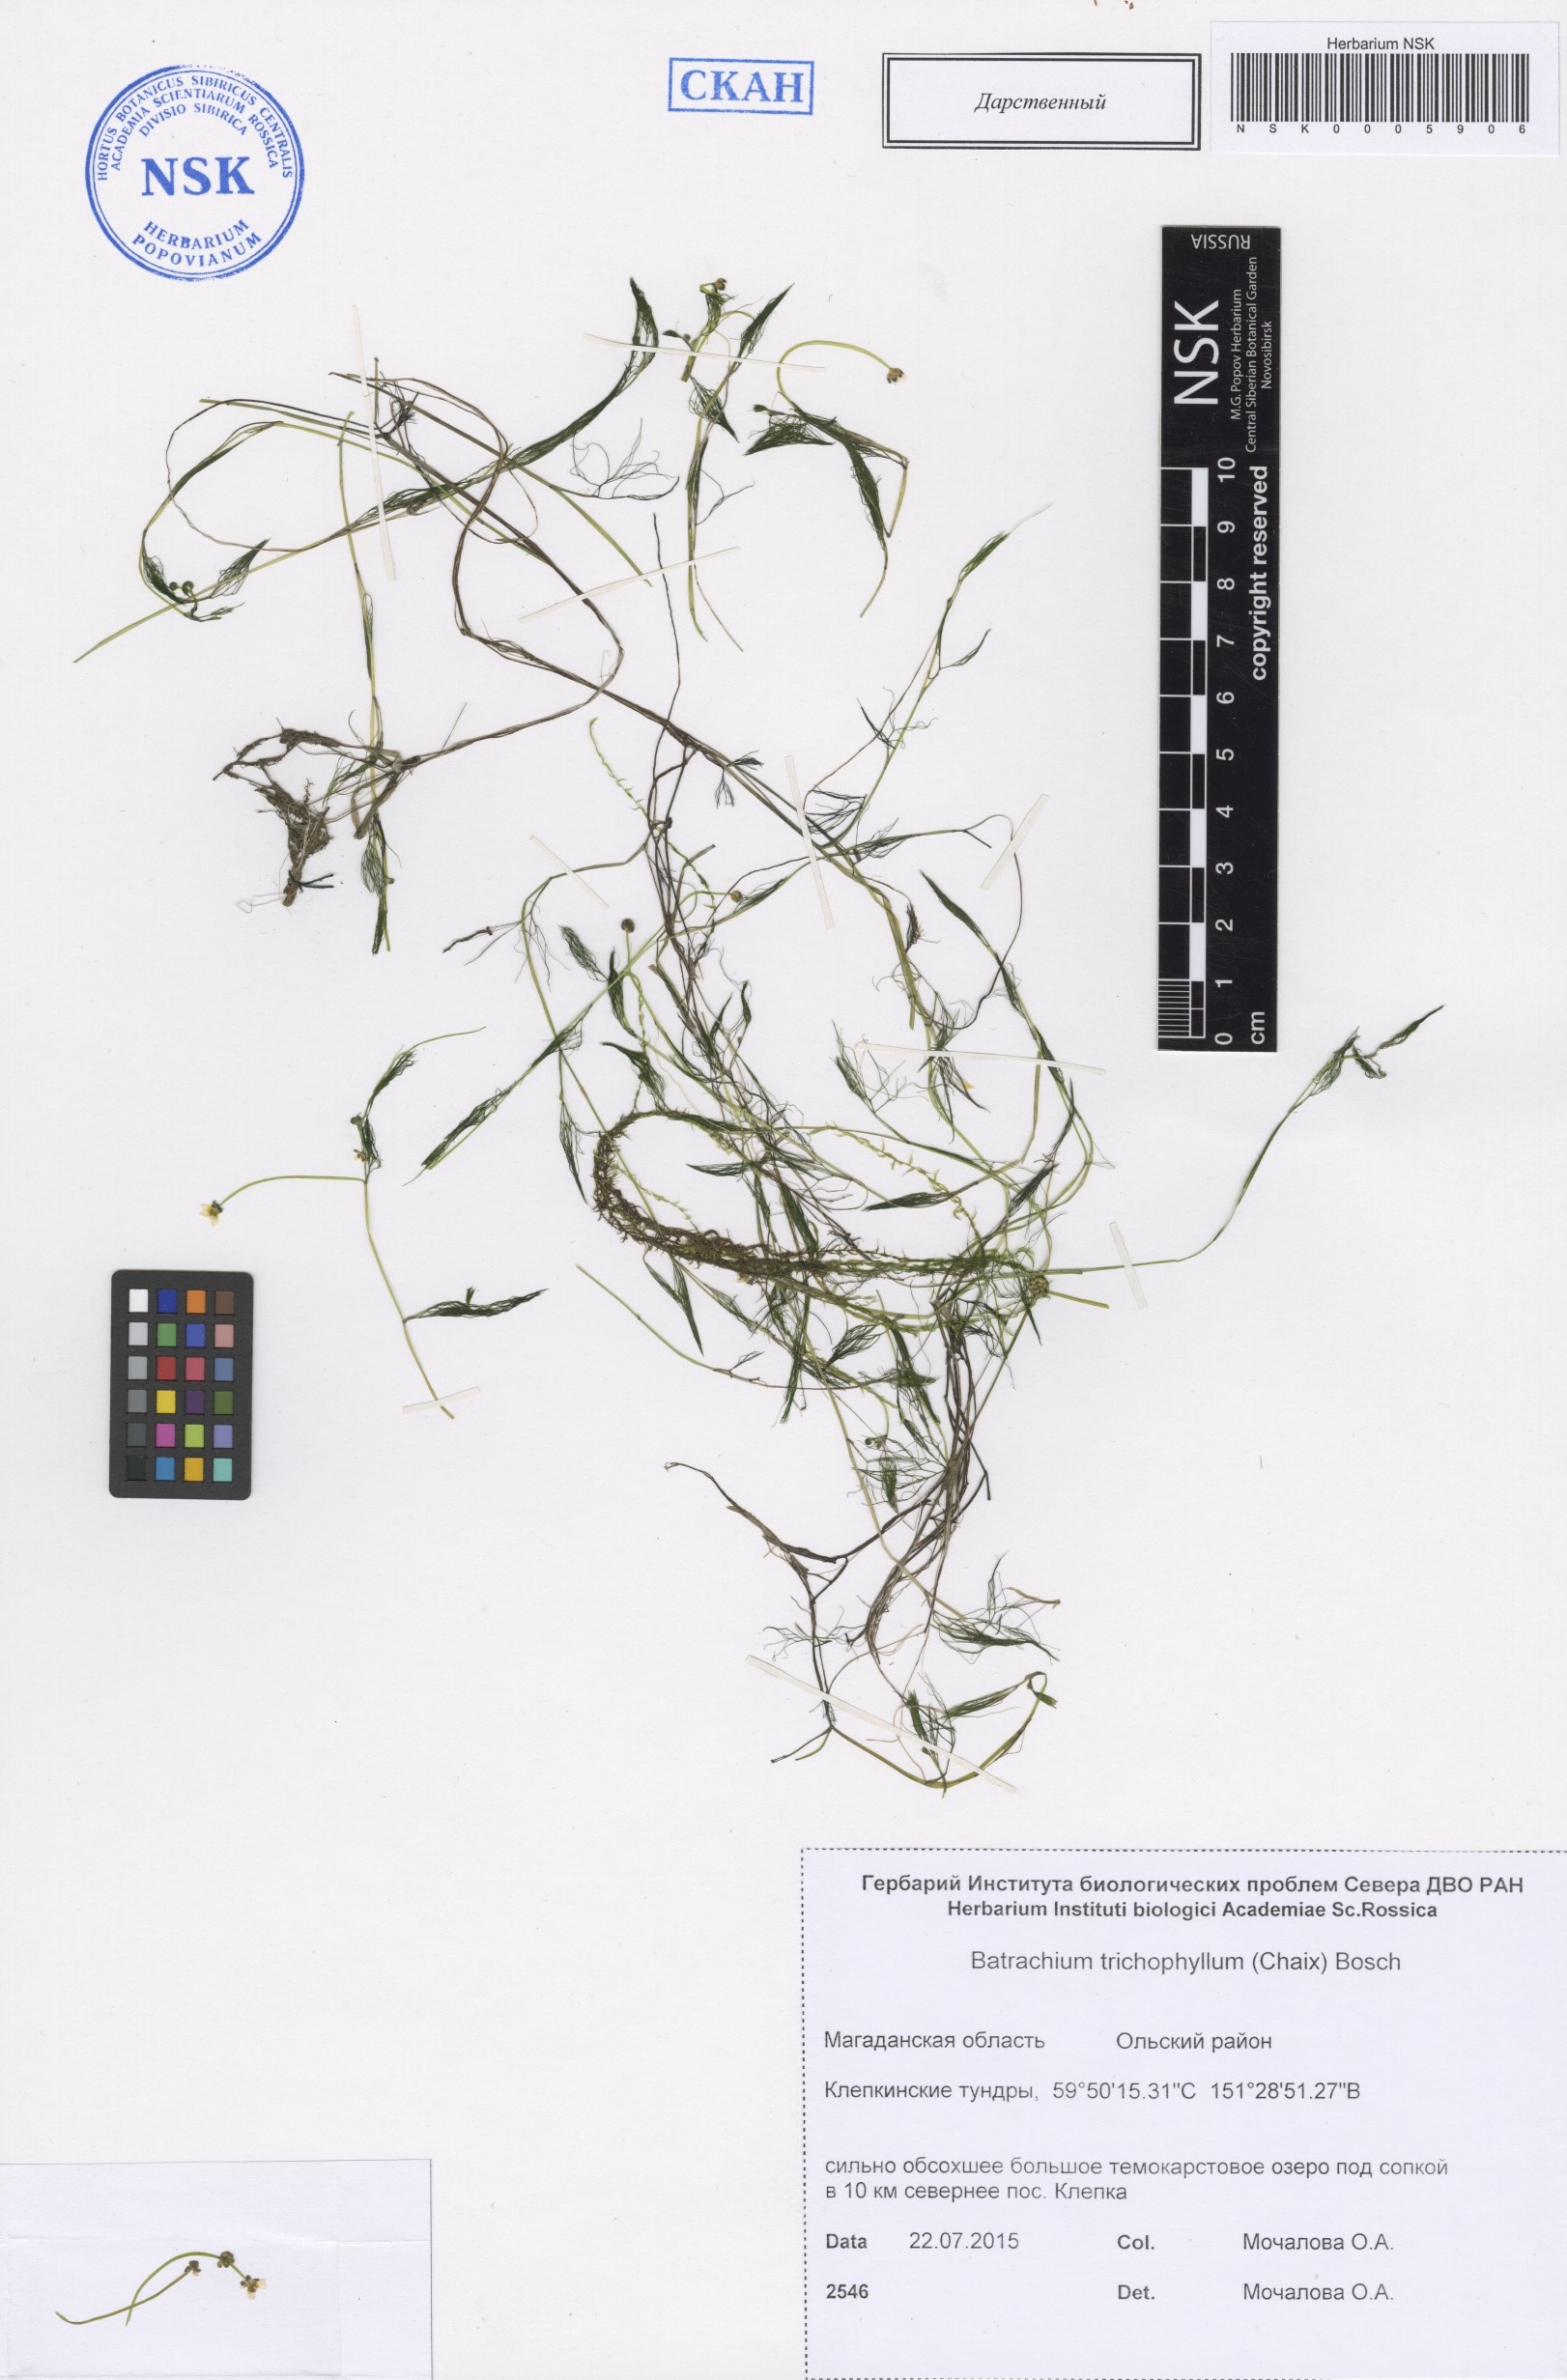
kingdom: Plantae
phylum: Tracheophyta
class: Magnoliopsida
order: Ranunculales
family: Ranunculaceae
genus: Ranunculus
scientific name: Ranunculus trichophyllus
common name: Thread-leaved water-crowfoot
